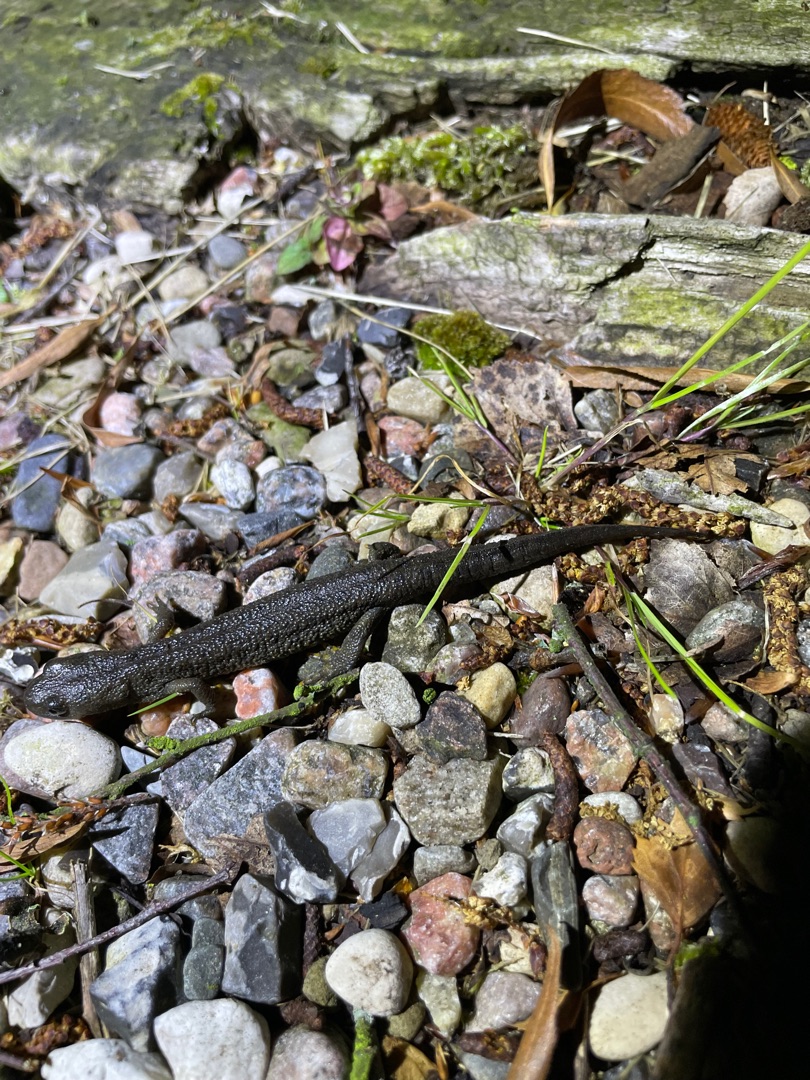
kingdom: Animalia
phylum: Chordata
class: Amphibia
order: Caudata
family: Salamandridae
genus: Triturus
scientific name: Triturus cristatus
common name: Stor vandsalamander
